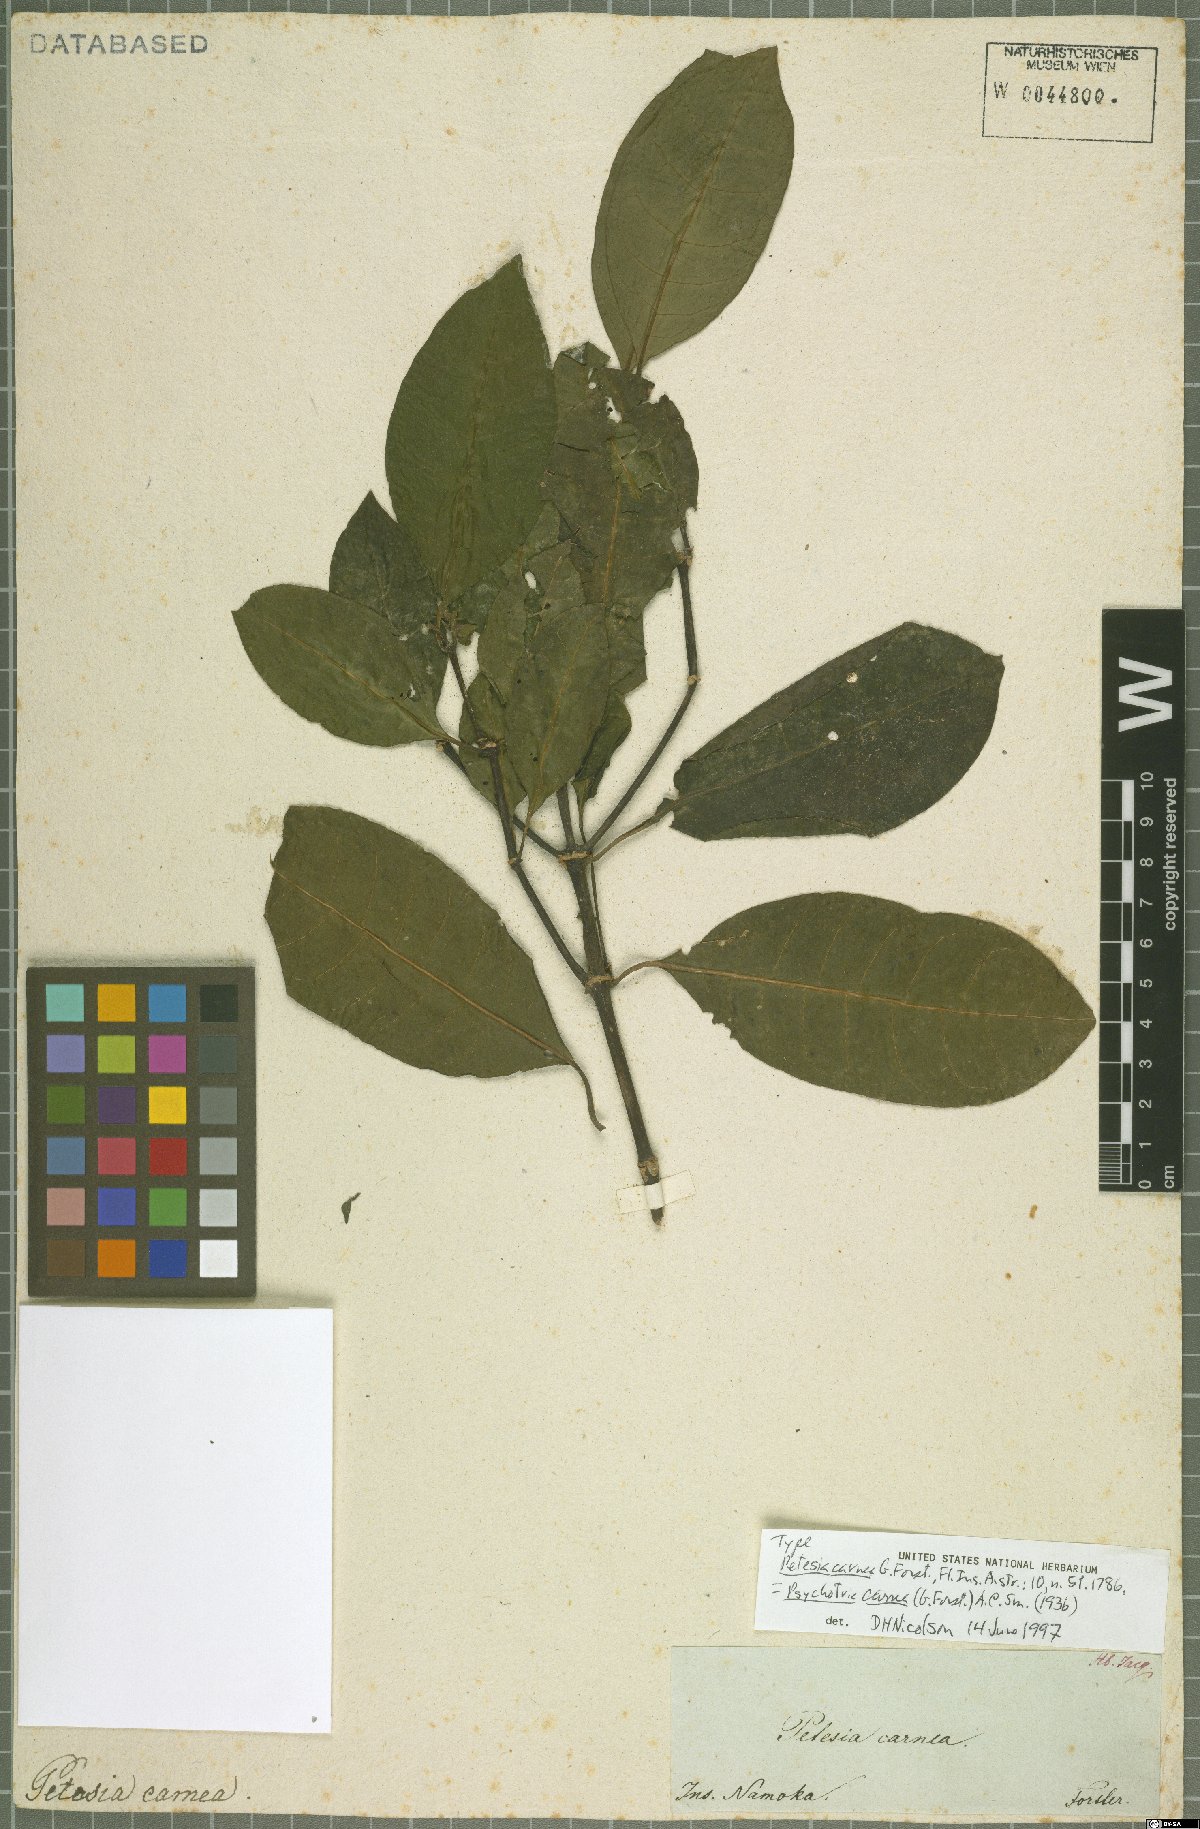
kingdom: Plantae
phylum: Tracheophyta
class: Magnoliopsida
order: Gentianales
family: Rubiaceae
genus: Eumachia
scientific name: Eumachia carnea
